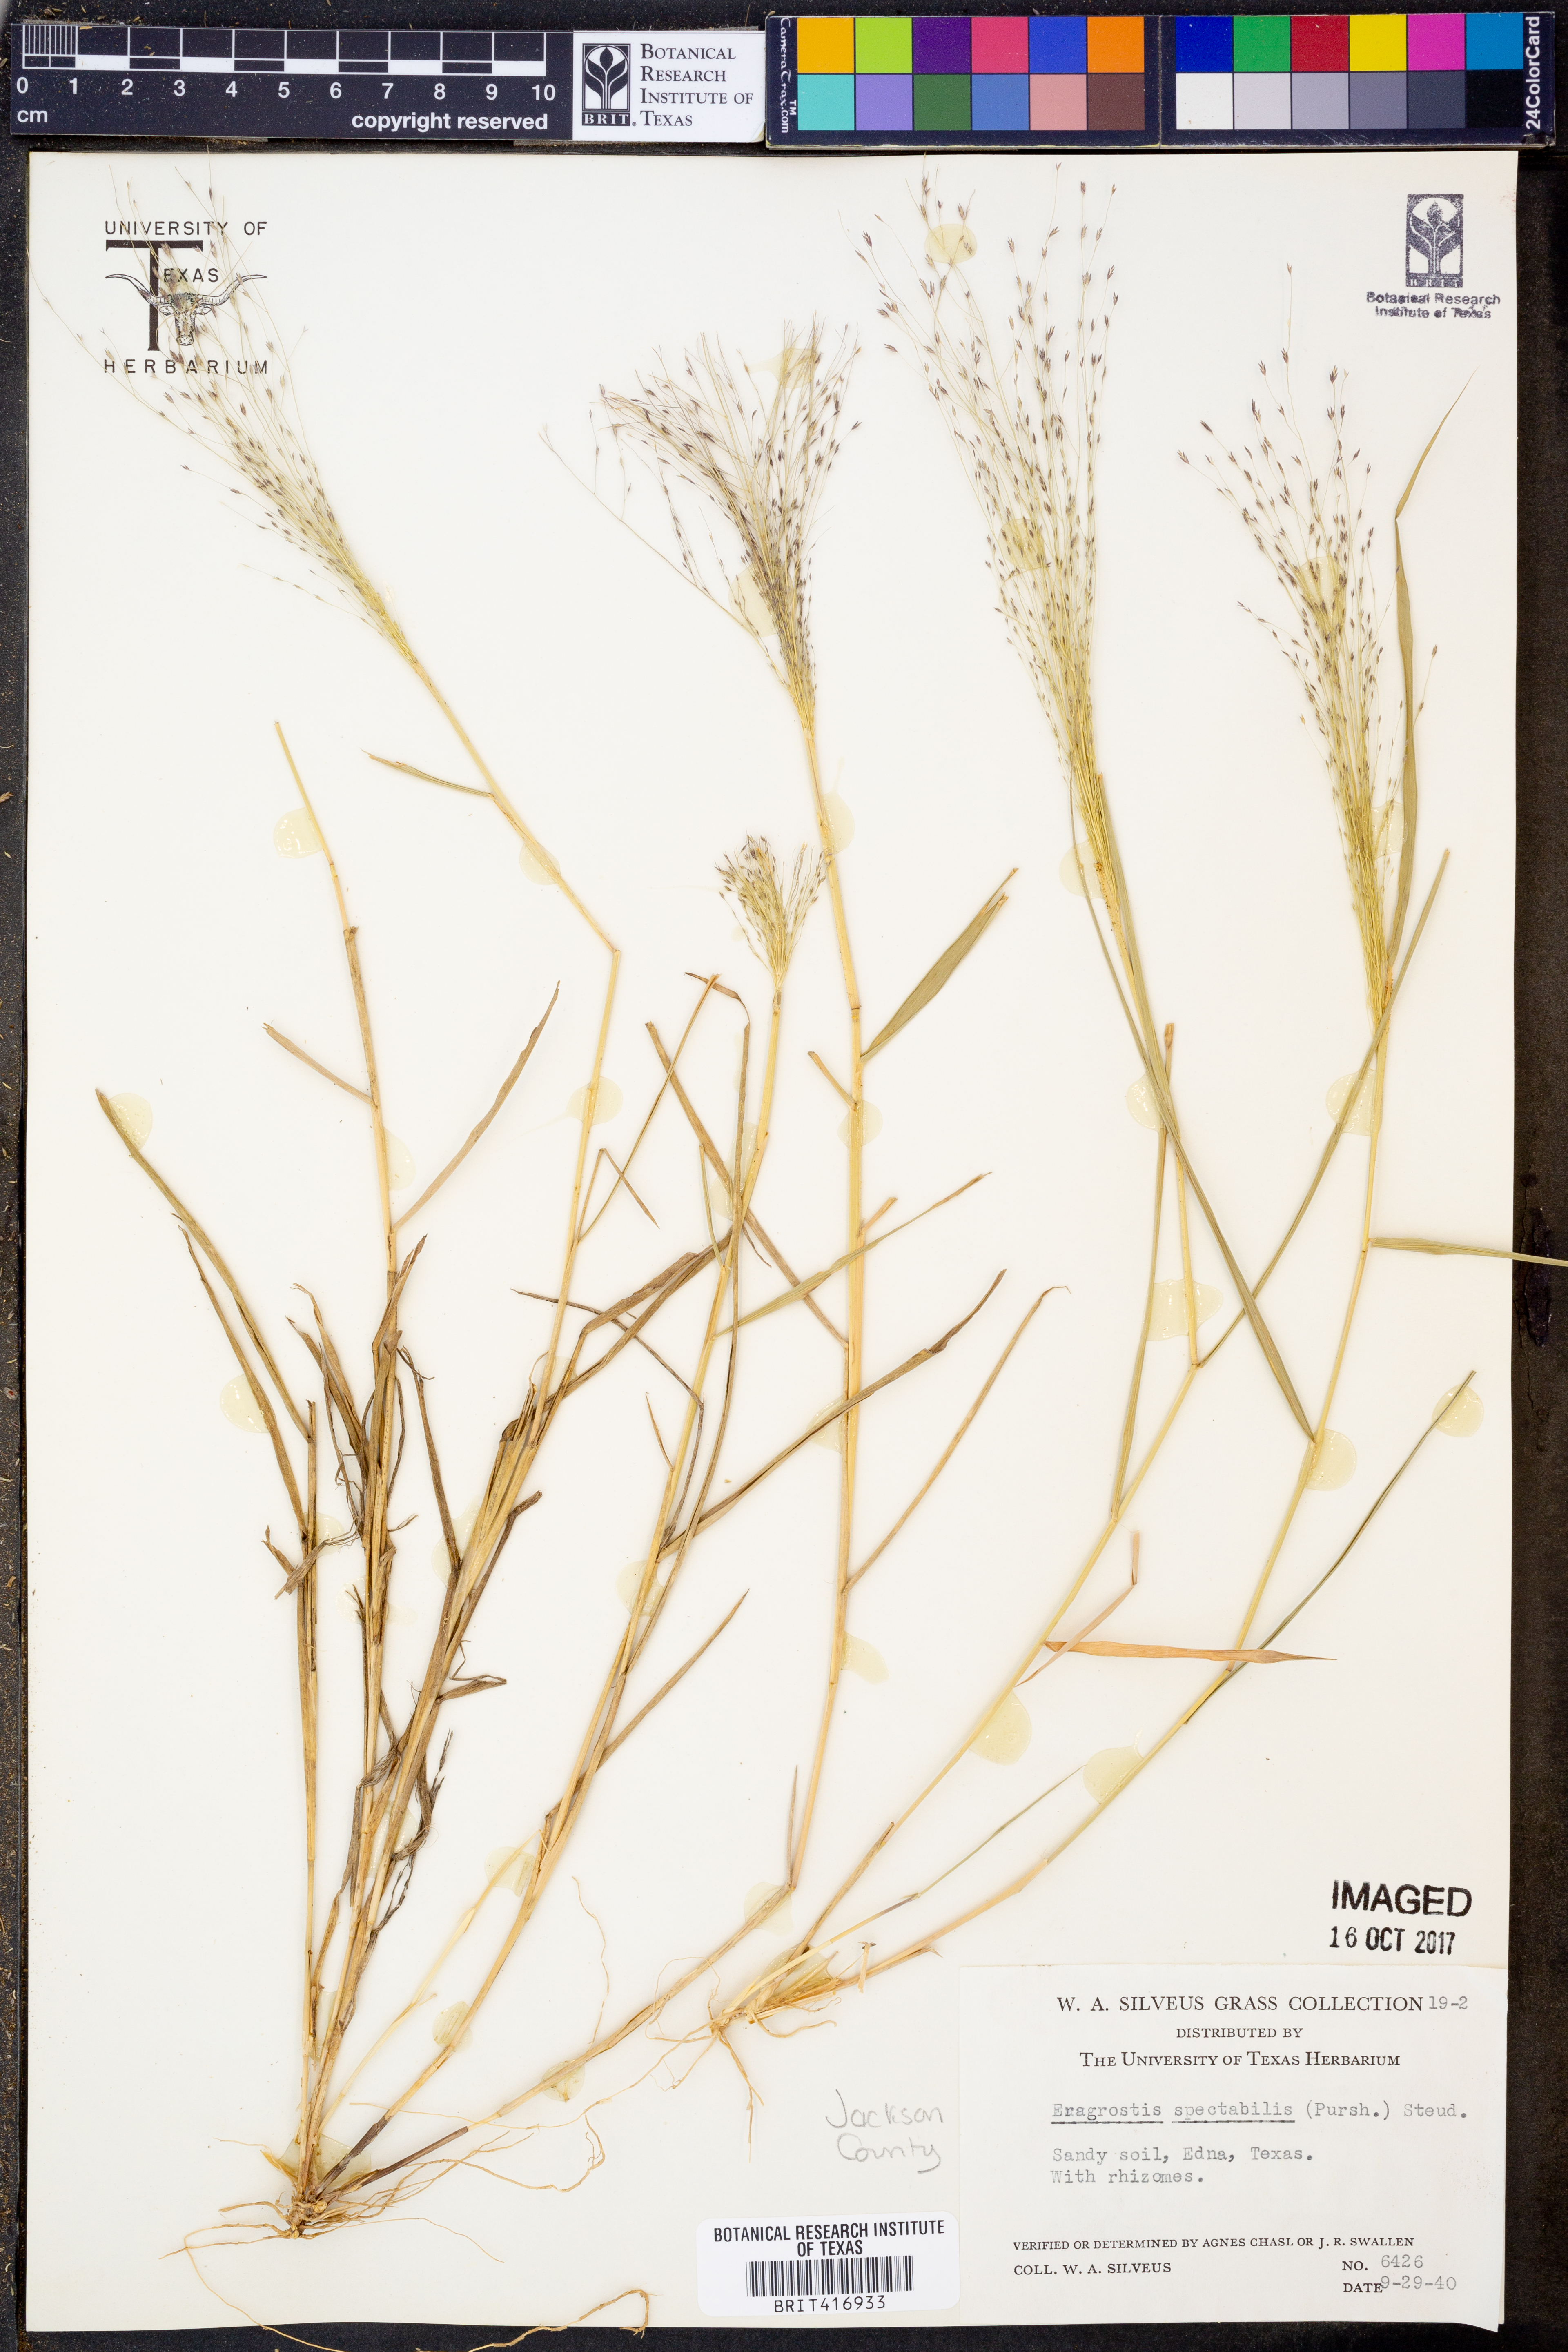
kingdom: Plantae
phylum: Tracheophyta
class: Liliopsida
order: Poales
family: Poaceae
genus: Eragrostis
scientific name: Eragrostis spectabilis
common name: Petticoat-climber
